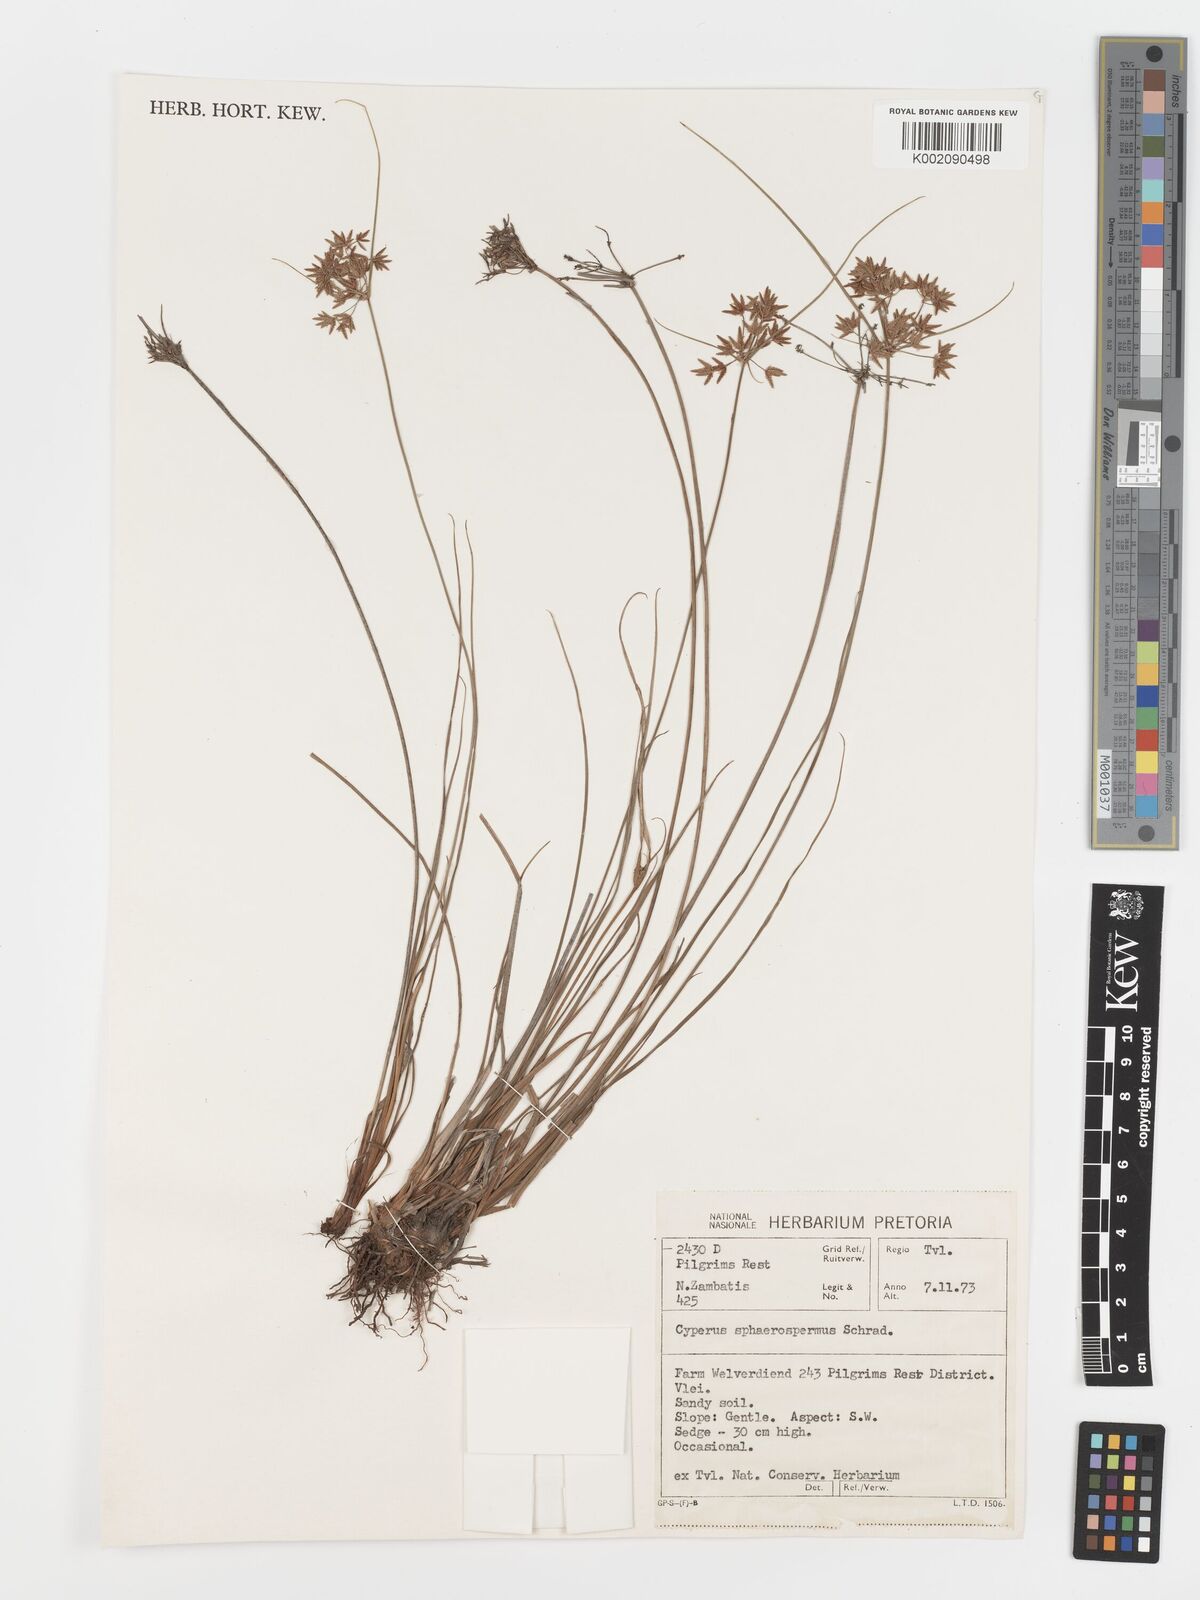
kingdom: Plantae
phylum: Tracheophyta
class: Liliopsida
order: Poales
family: Cyperaceae
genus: Cyperus
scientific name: Cyperus sphaerospermus
